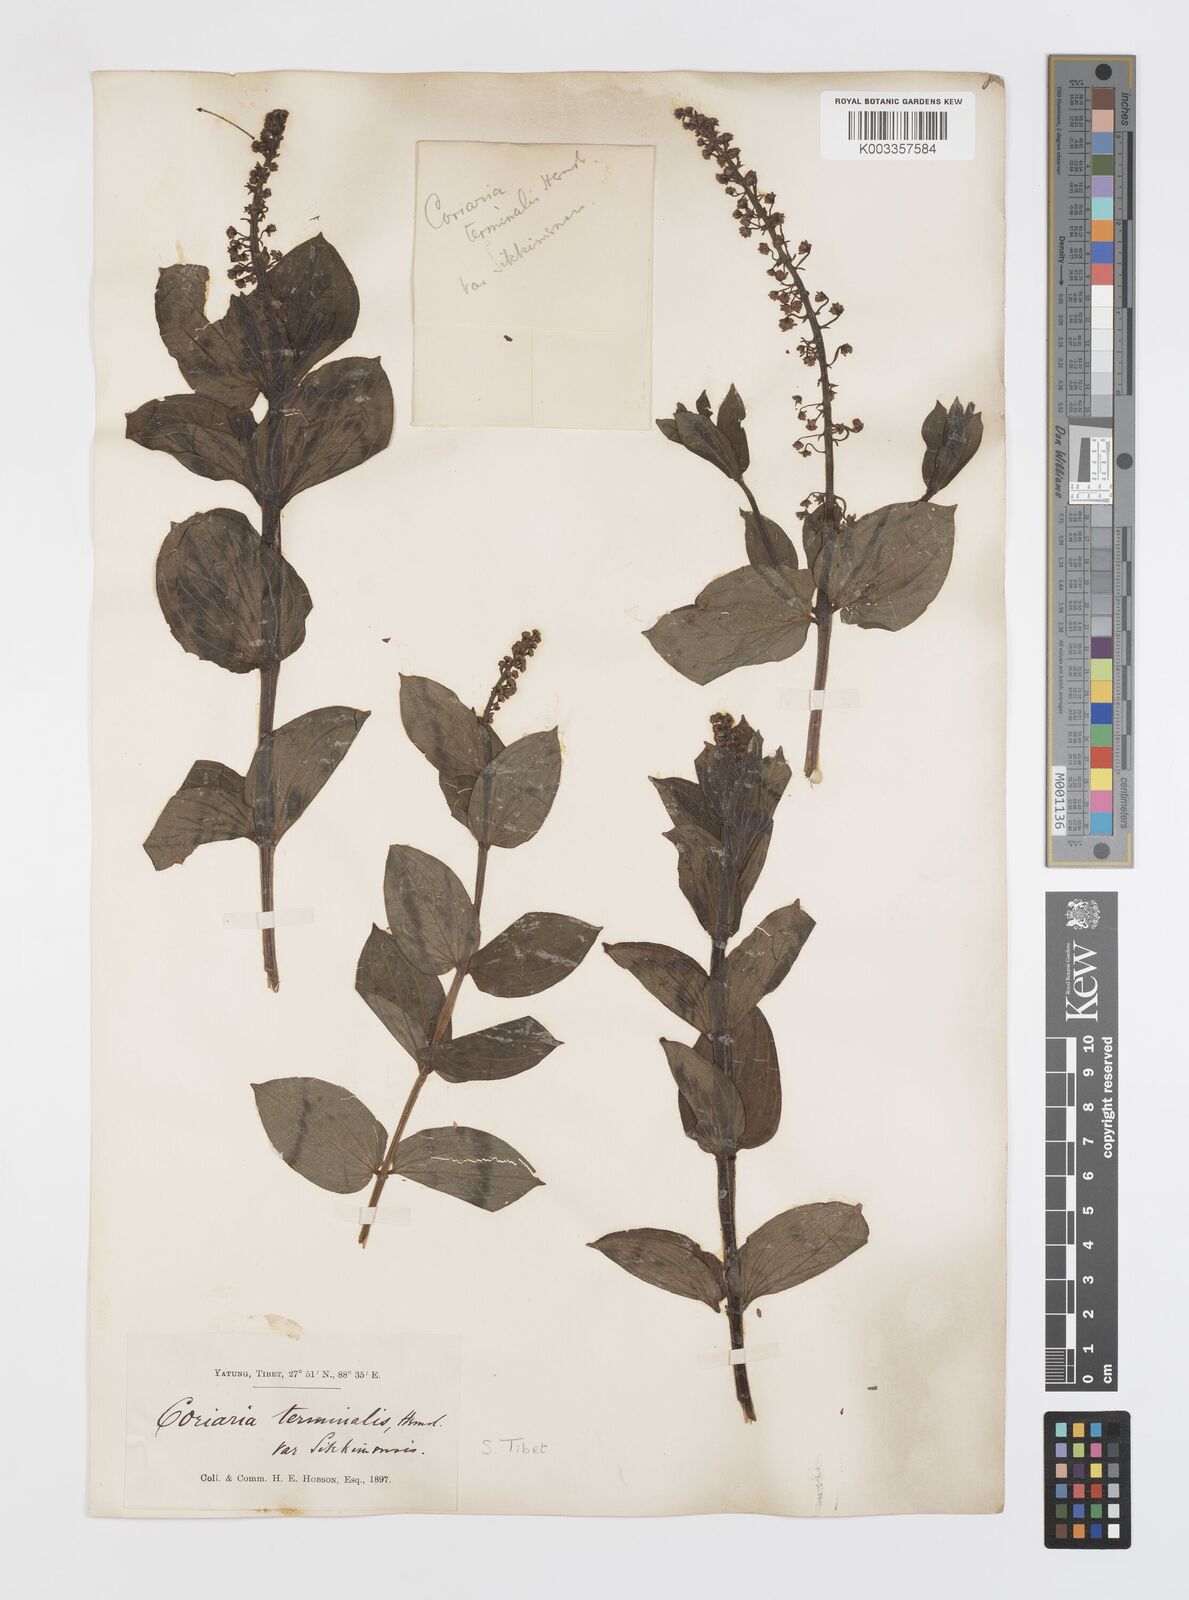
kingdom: Plantae
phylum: Tracheophyta
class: Magnoliopsida
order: Cucurbitales
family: Coriariaceae
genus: Coriaria
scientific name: Coriaria terminalis
